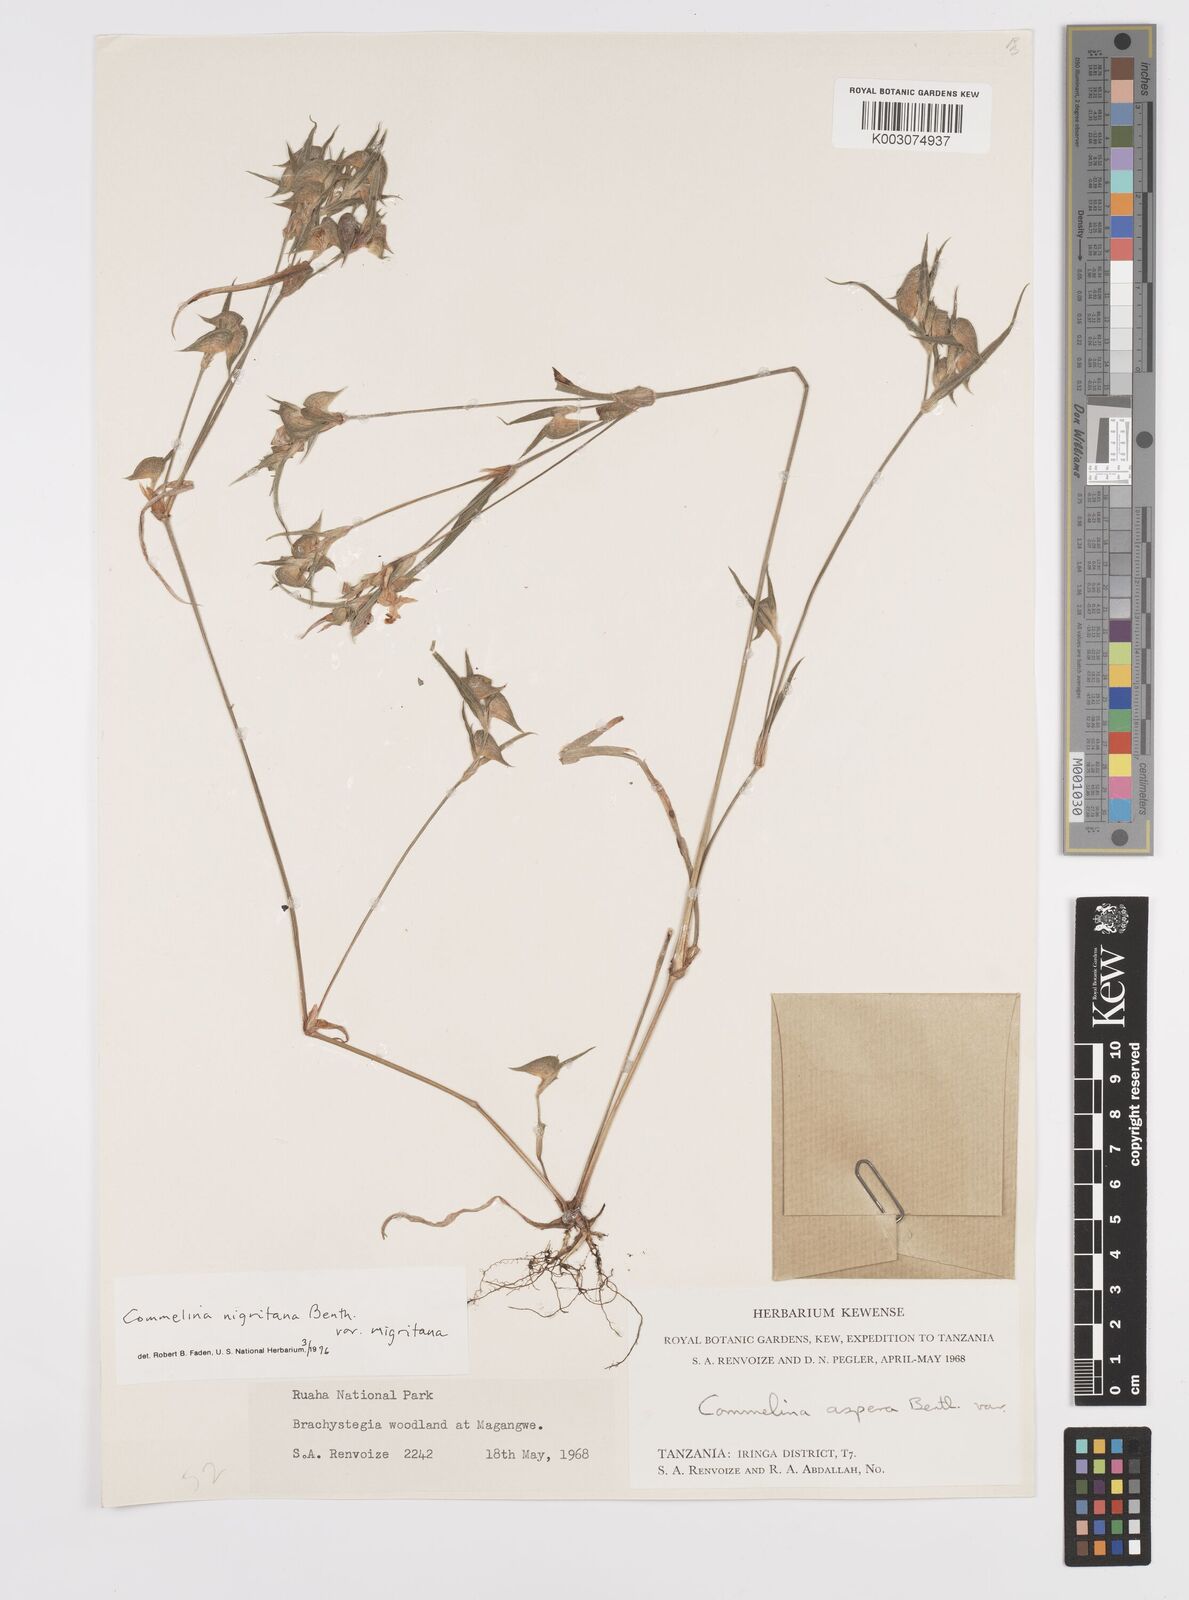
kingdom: Plantae
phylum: Tracheophyta
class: Liliopsida
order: Commelinales
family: Commelinaceae
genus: Commelina
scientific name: Commelina nigritana
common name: African dayflower
